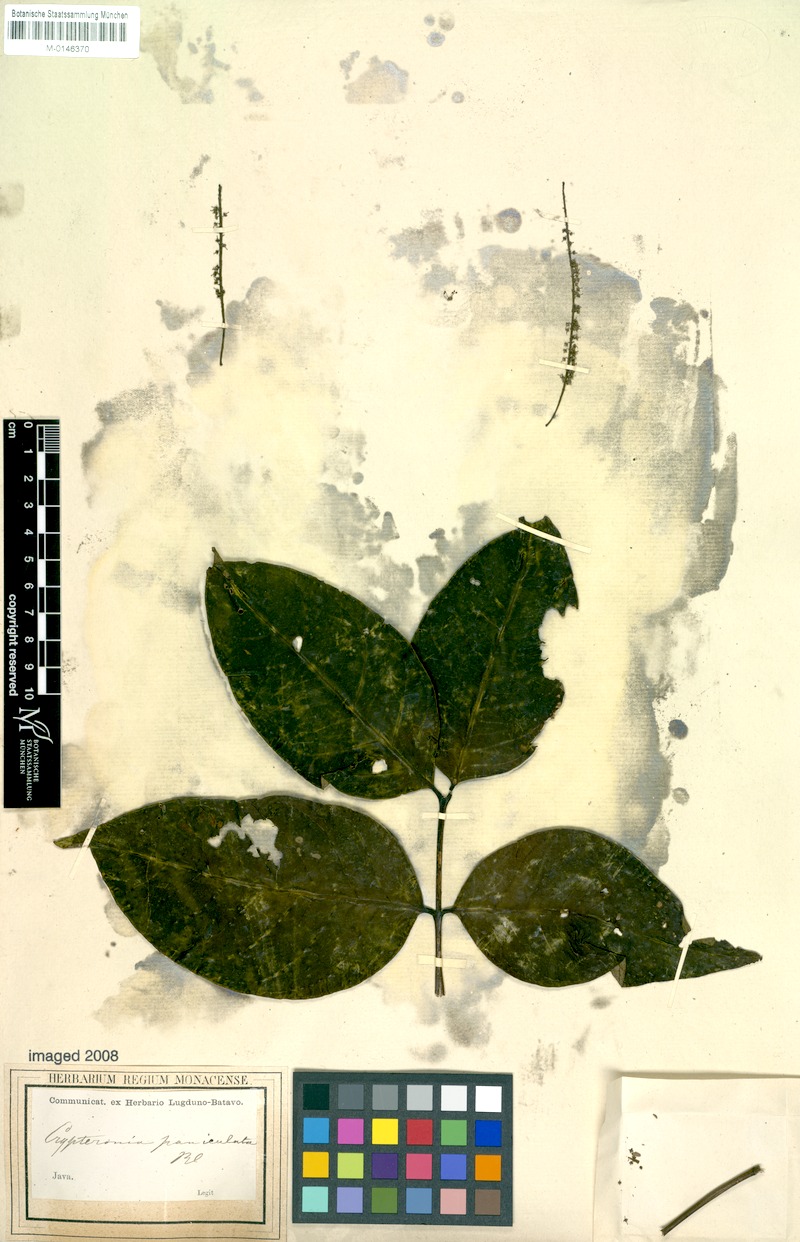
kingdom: Plantae
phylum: Tracheophyta
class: Magnoliopsida
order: Myrtales
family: Crypteroniaceae
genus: Crypteronia
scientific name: Crypteronia paniculata
